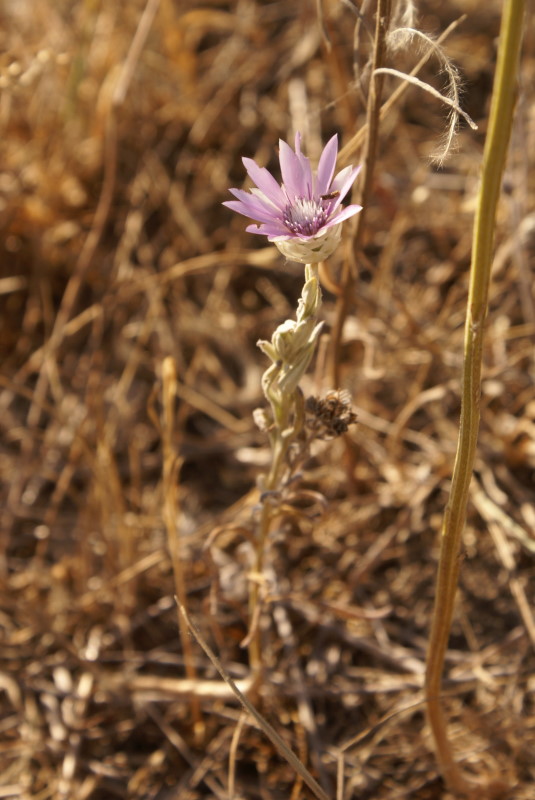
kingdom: Plantae
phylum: Tracheophyta
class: Magnoliopsida
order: Asterales
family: Asteraceae
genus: Xeranthemum
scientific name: Xeranthemum annuum
